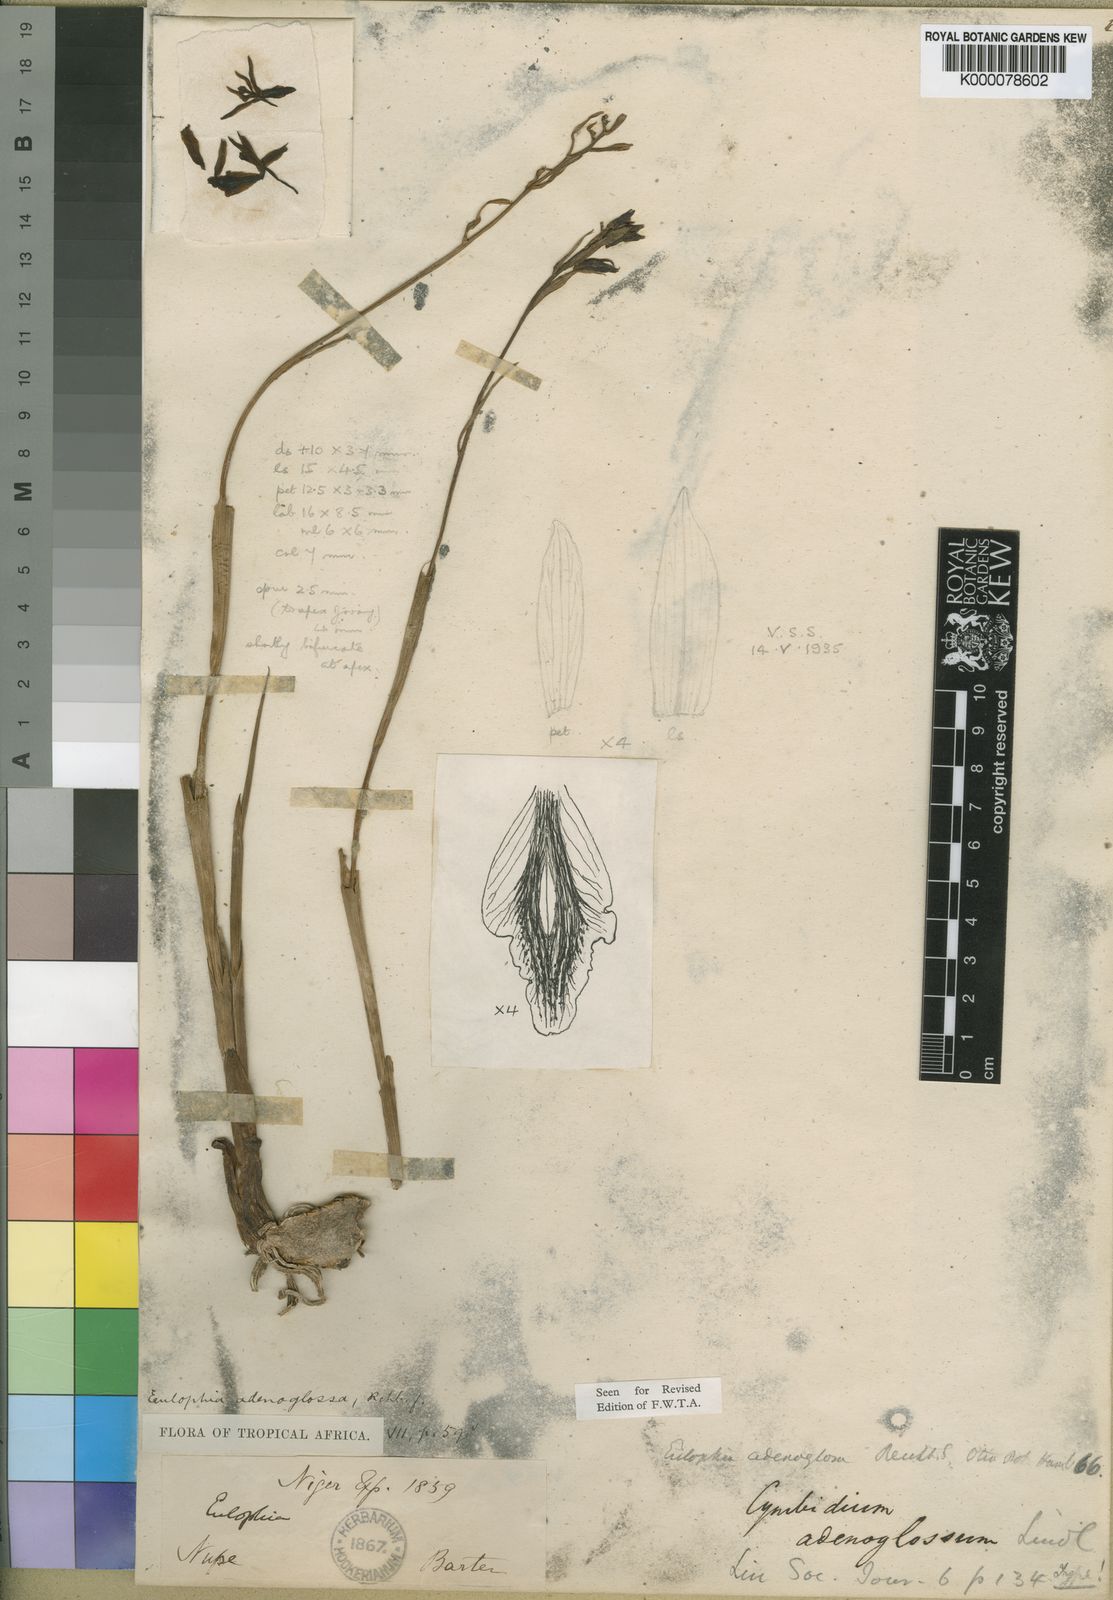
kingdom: Plantae
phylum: Tracheophyta
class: Liliopsida
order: Asparagales
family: Orchidaceae
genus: Eulophia
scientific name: Eulophia adenoglossa
